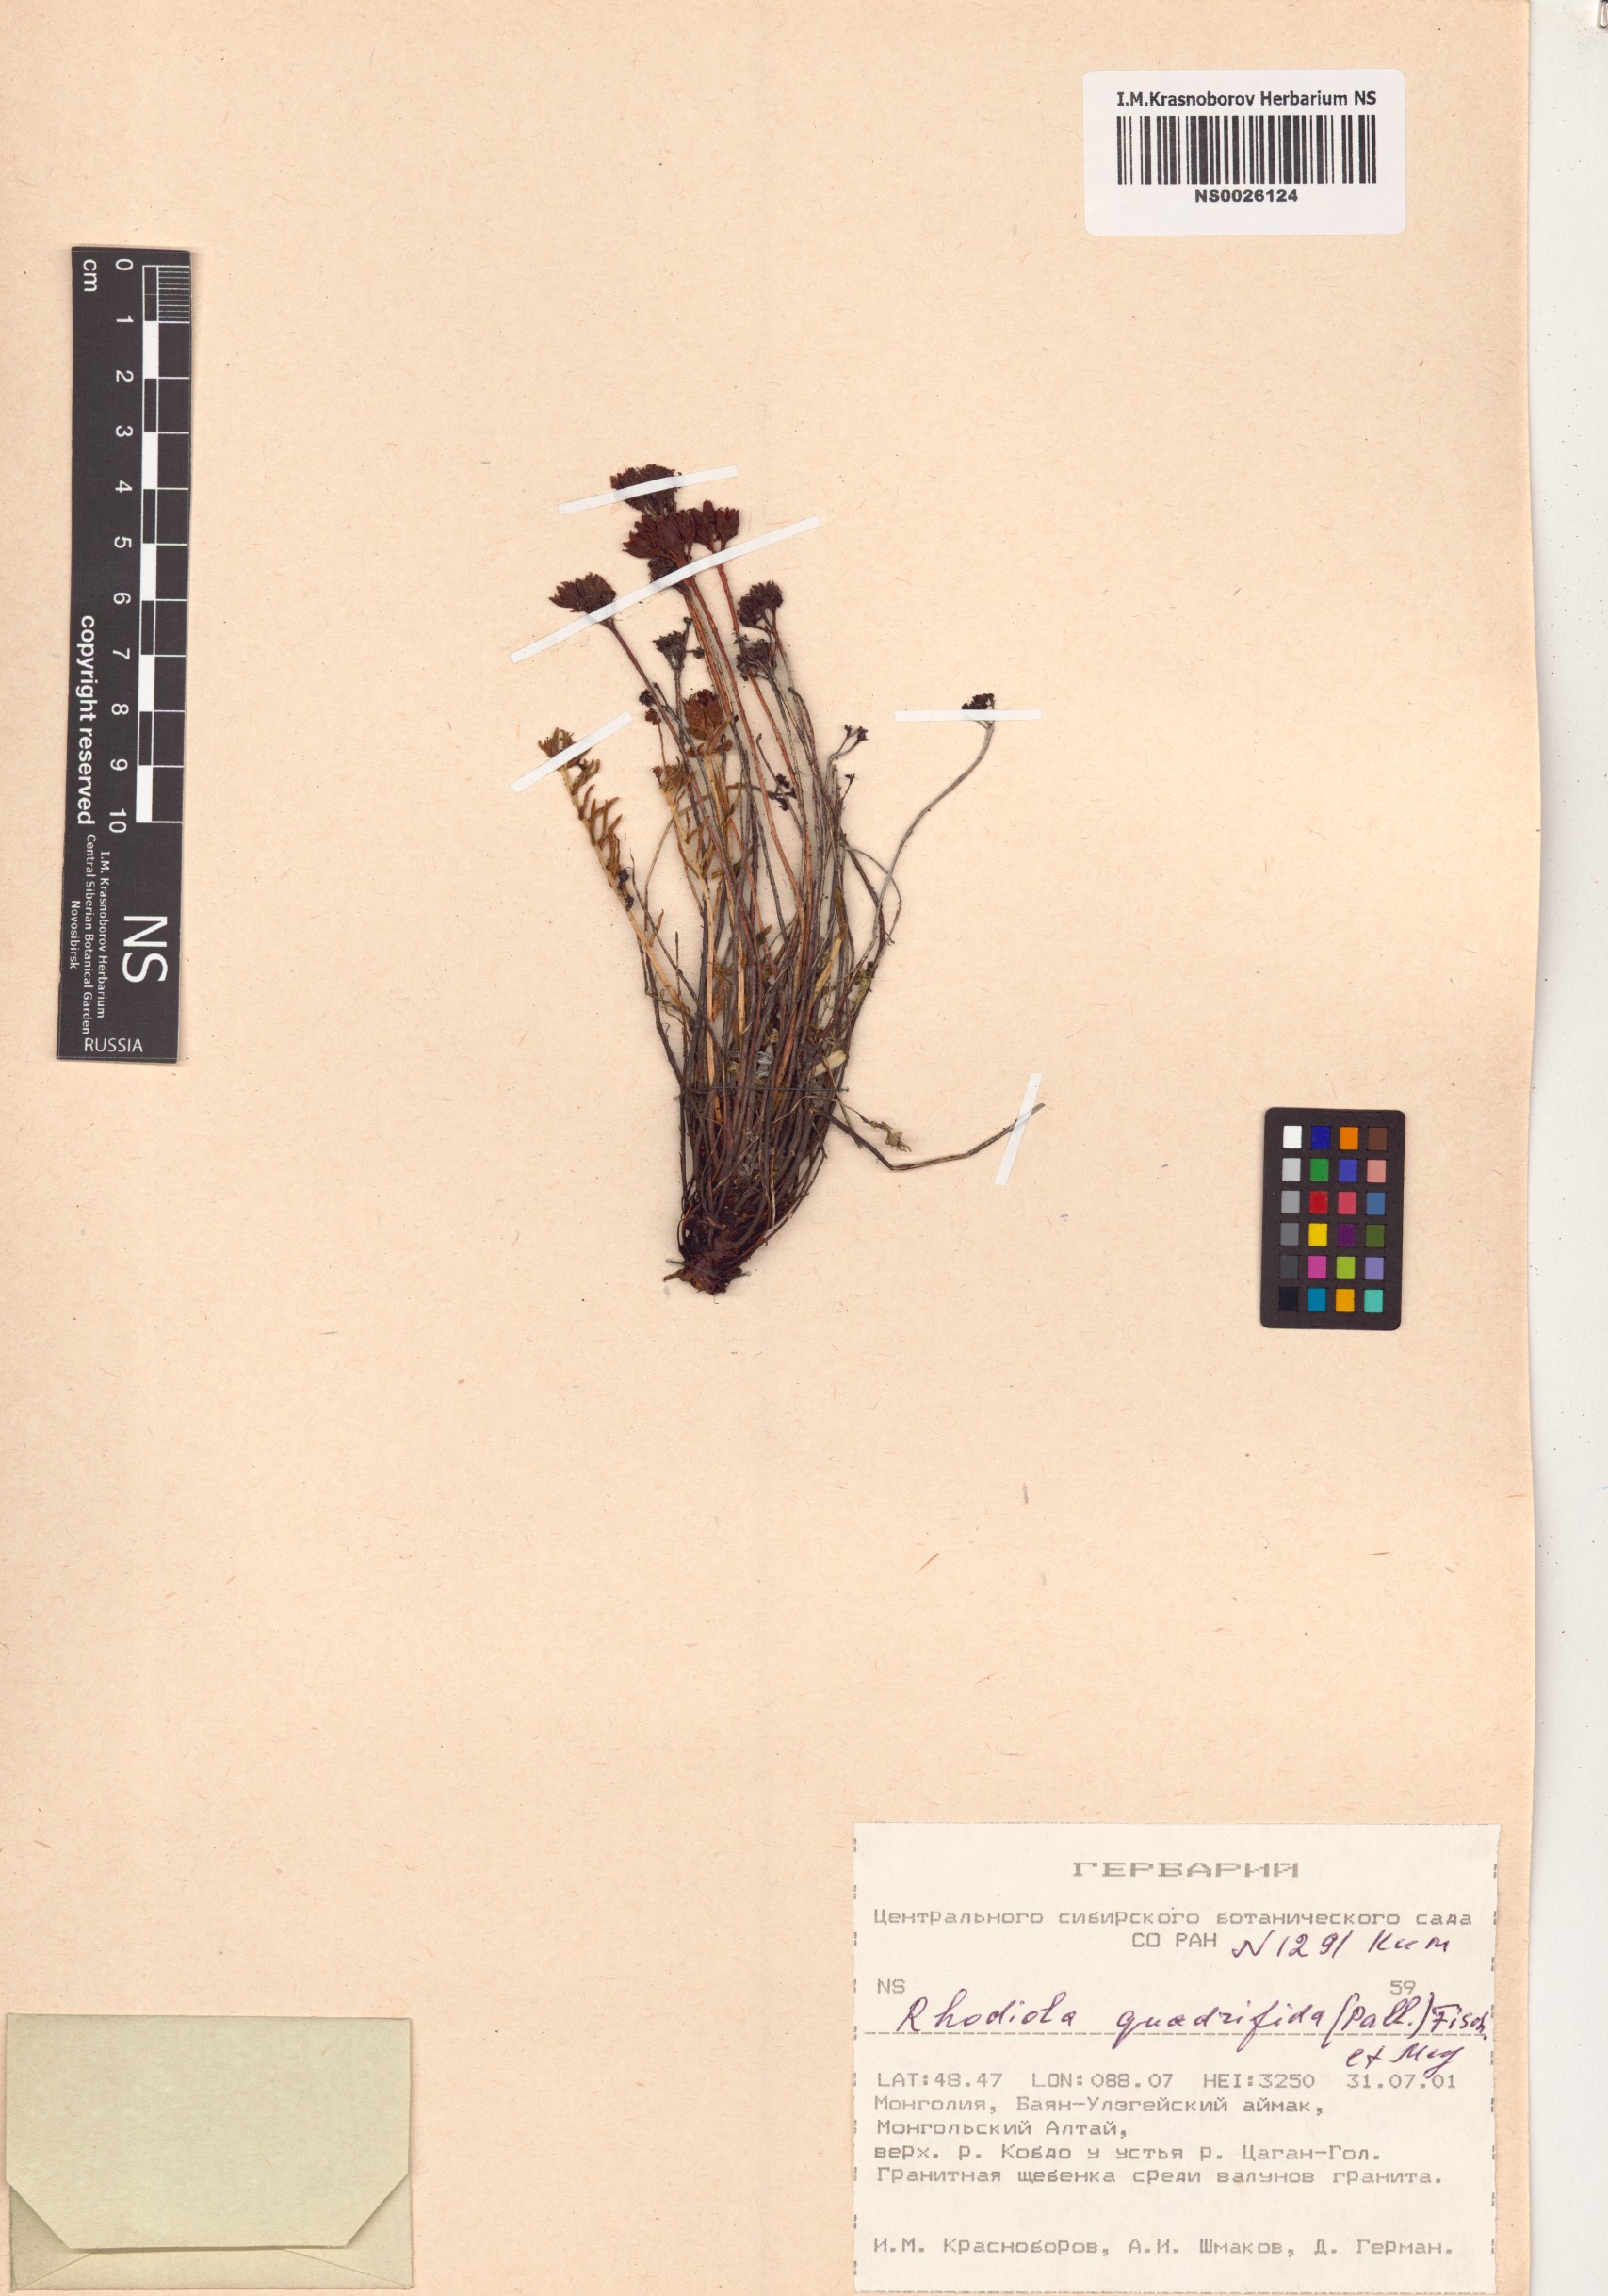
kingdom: Plantae
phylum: Tracheophyta
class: Magnoliopsida
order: Saxifragales
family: Crassulaceae
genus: Rhodiola
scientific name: Rhodiola quadrifida
